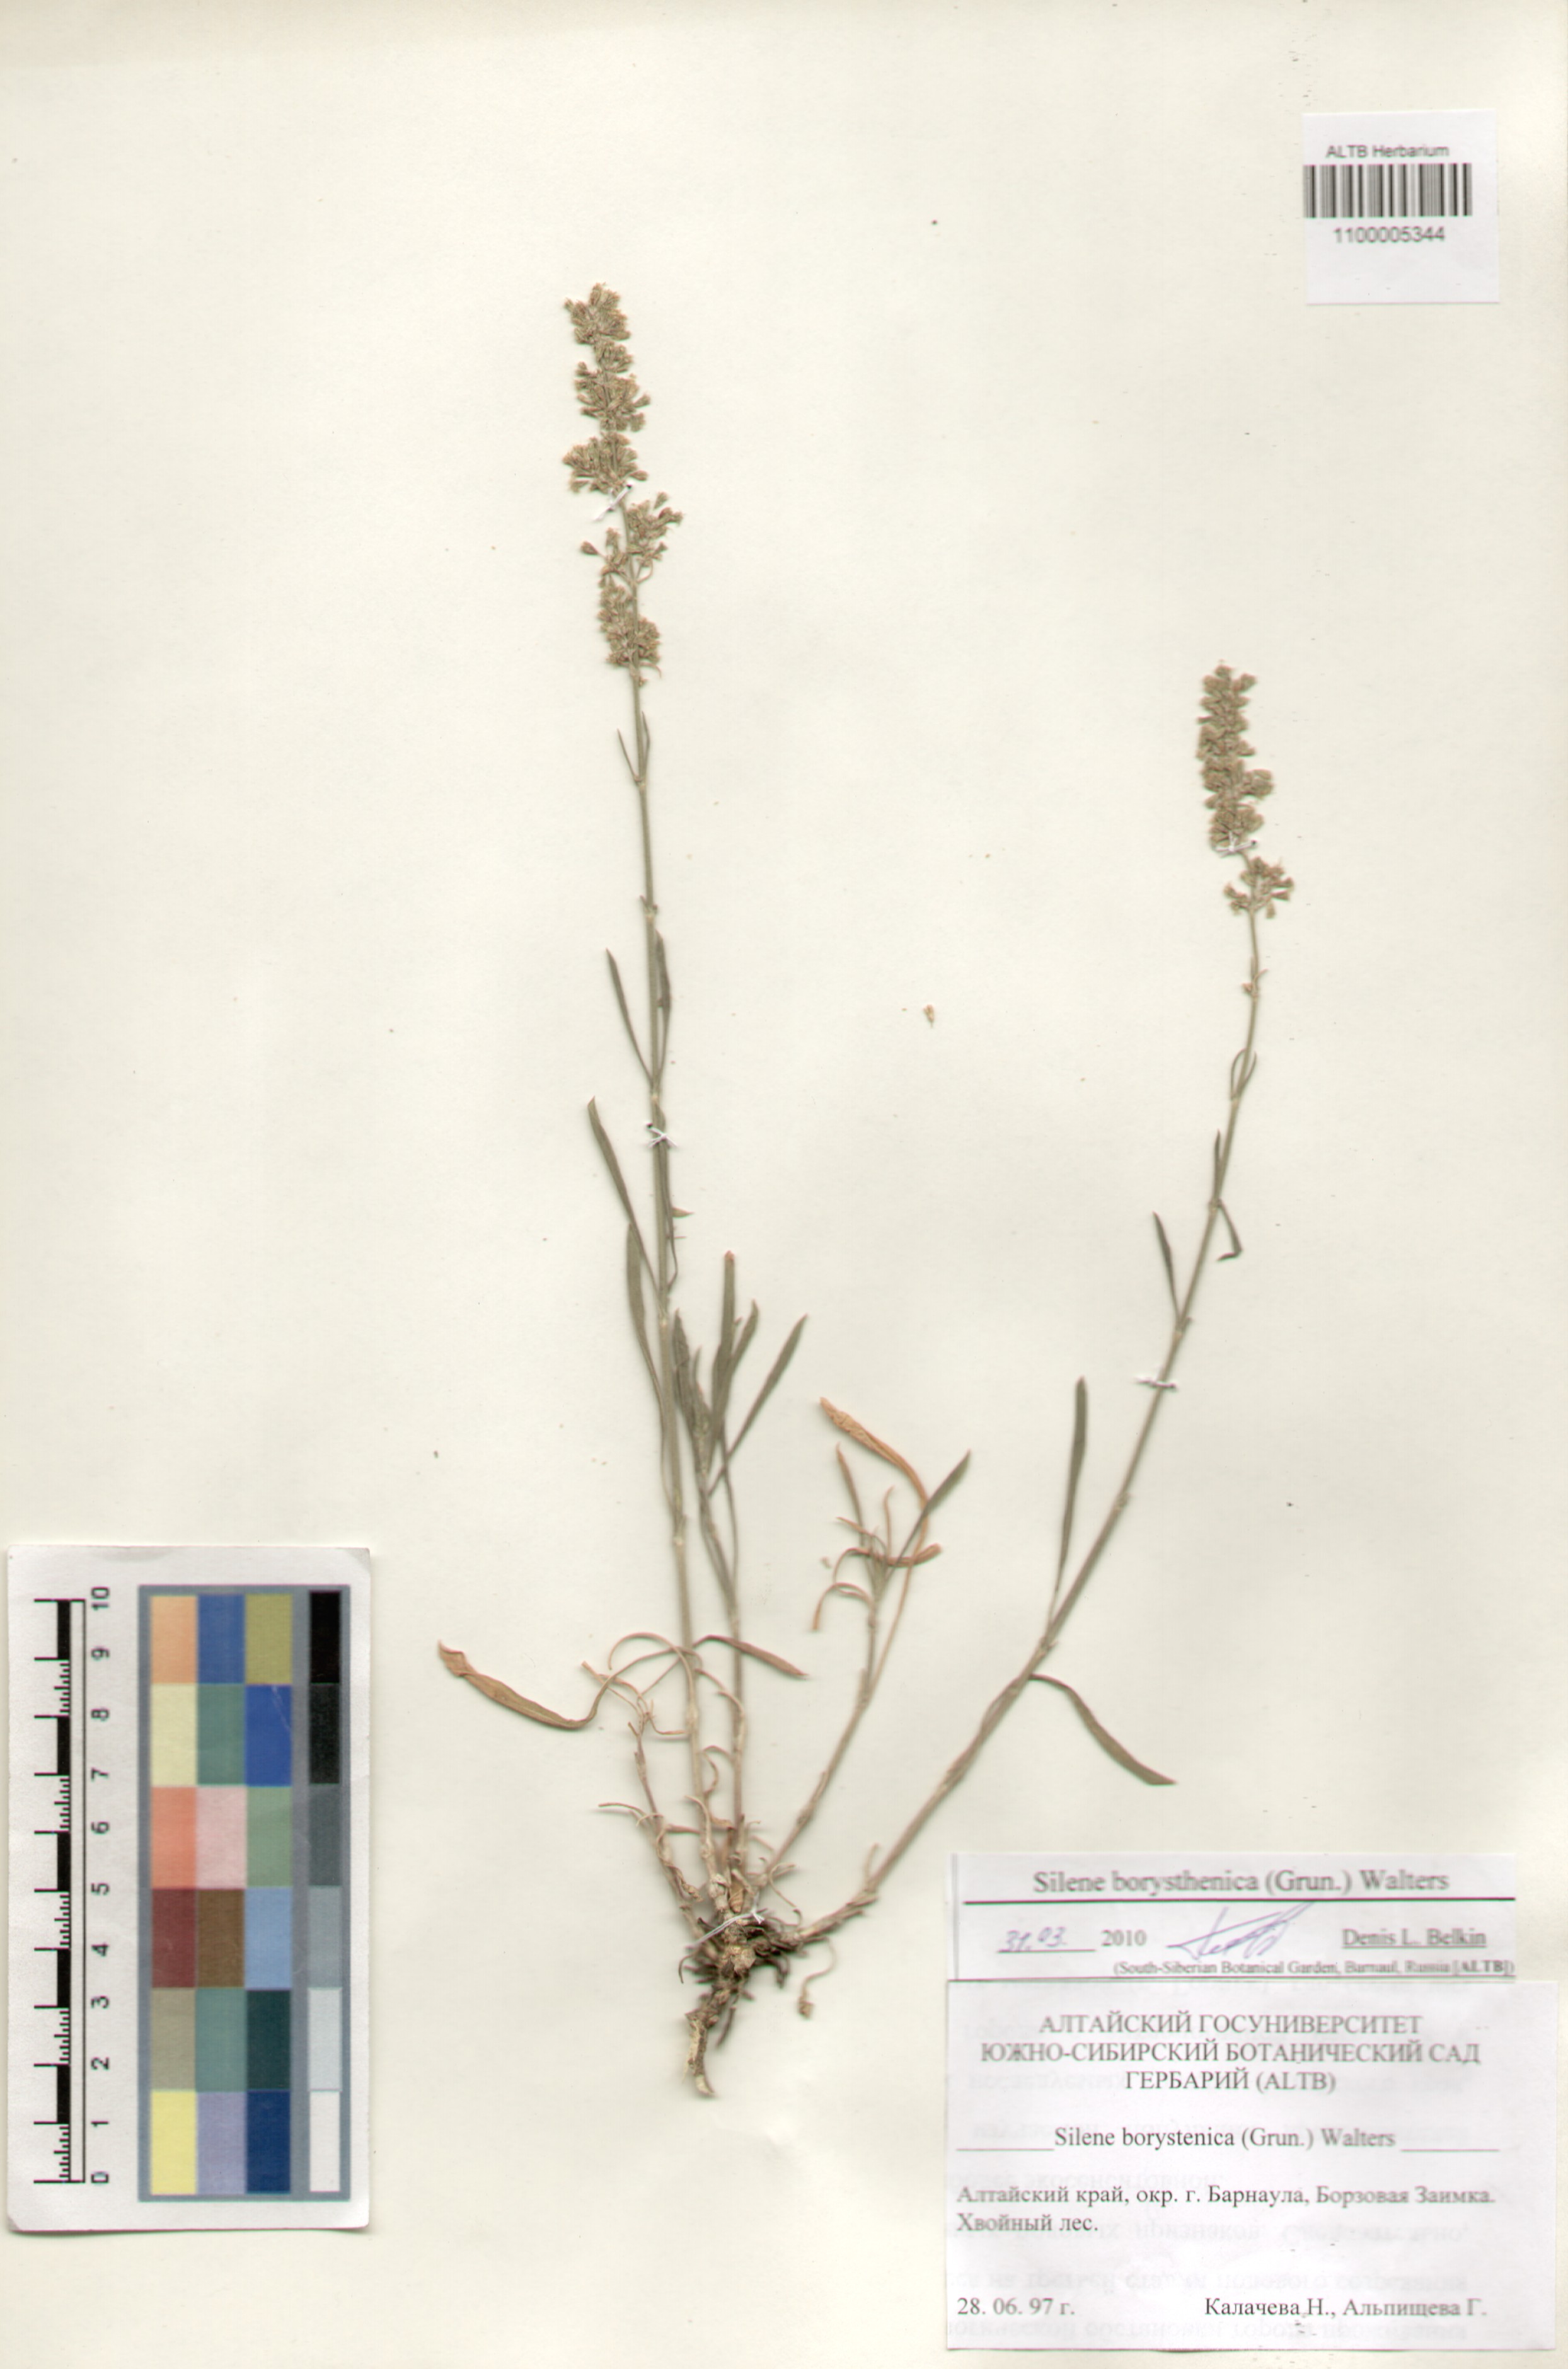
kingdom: Plantae
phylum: Tracheophyta
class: Magnoliopsida
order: Caryophyllales
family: Caryophyllaceae
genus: Silene
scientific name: Silene borysthenica
